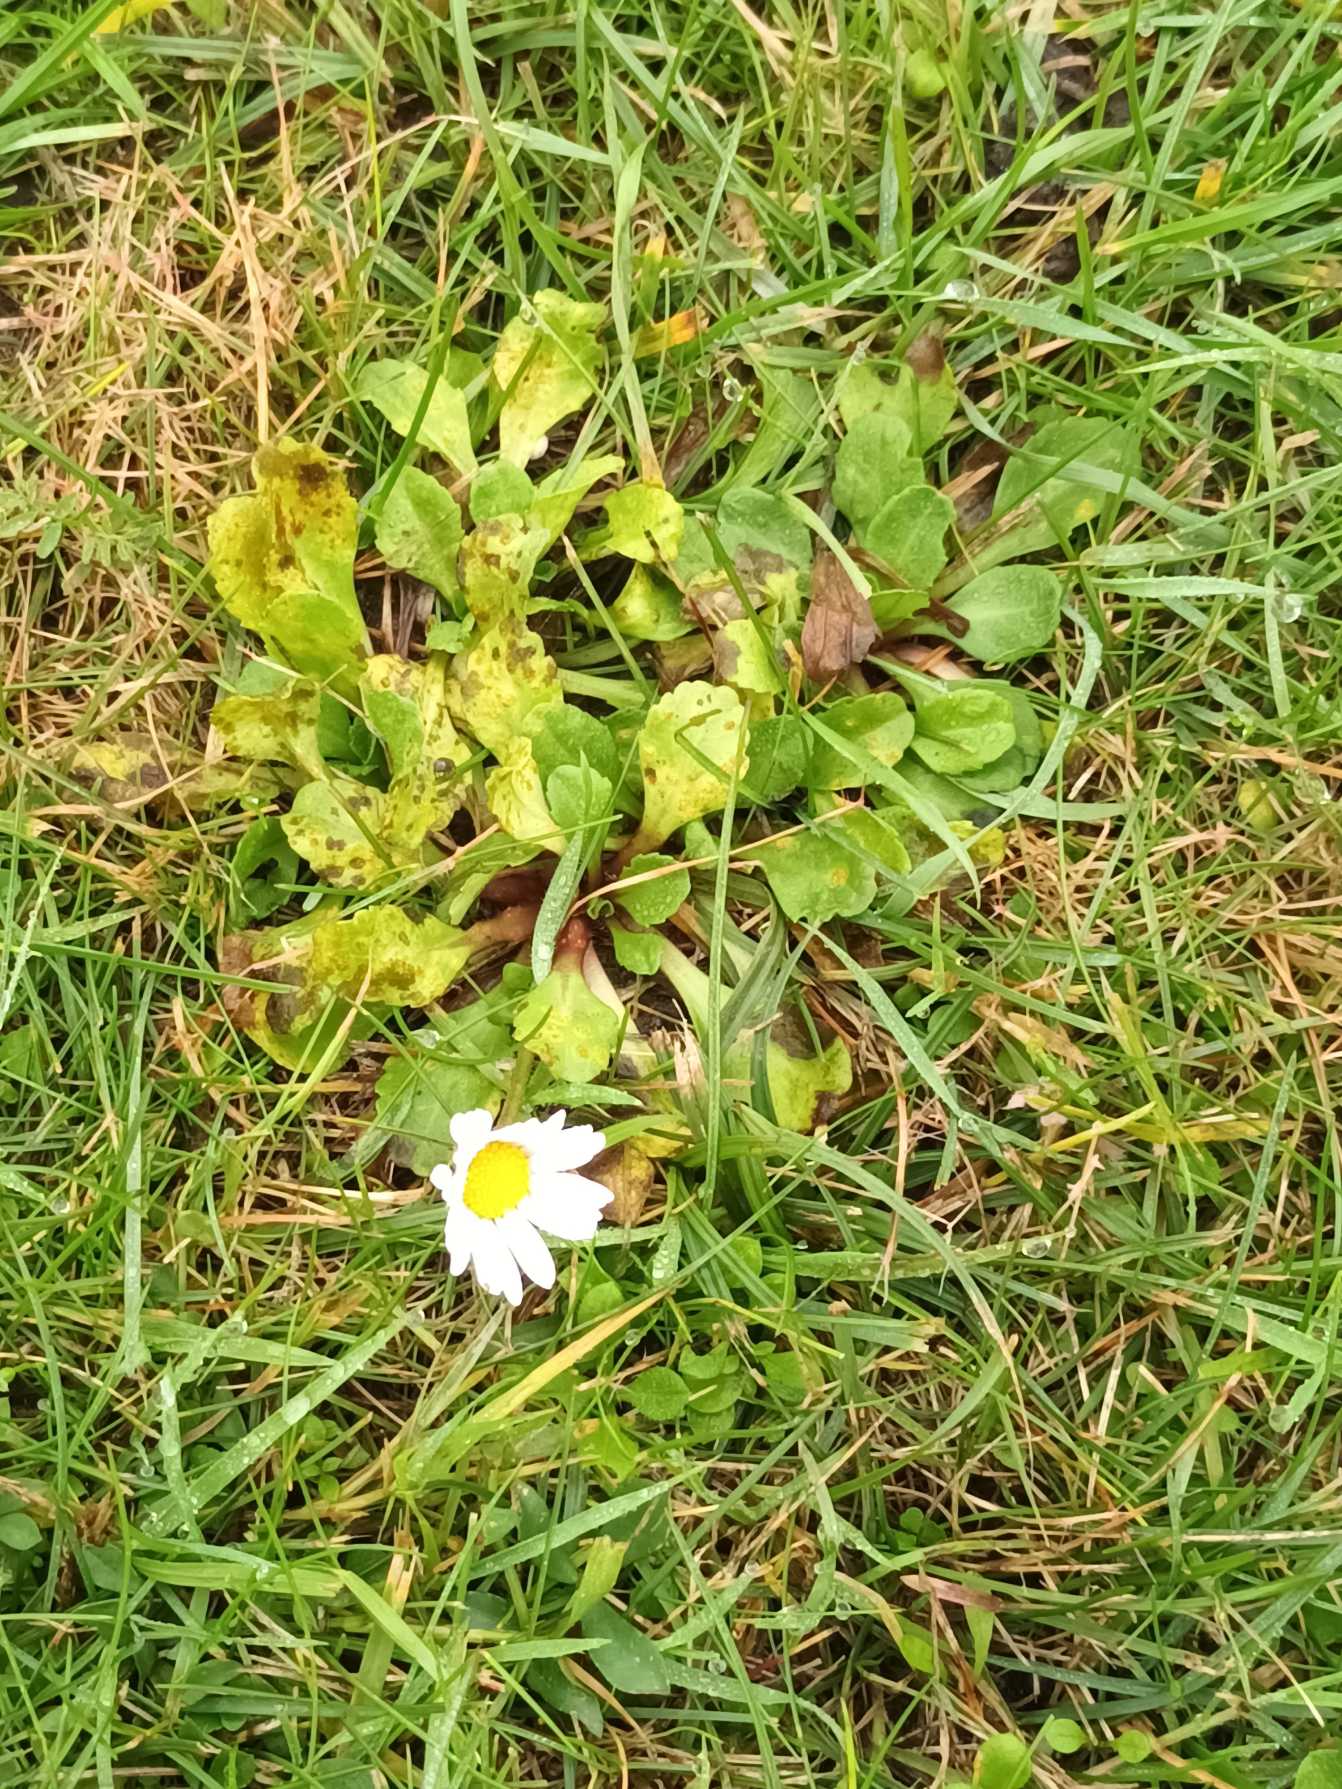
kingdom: Plantae
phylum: Tracheophyta
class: Magnoliopsida
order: Asterales
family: Asteraceae
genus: Bellis
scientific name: Bellis perennis
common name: Tusindfryd
